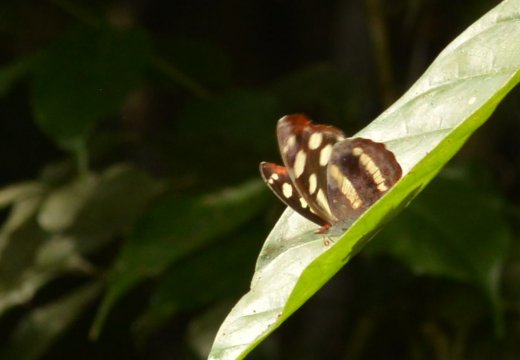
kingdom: Animalia
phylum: Arthropoda
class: Insecta
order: Lepidoptera
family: Nymphalidae
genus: Catonephele
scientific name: Catonephele
